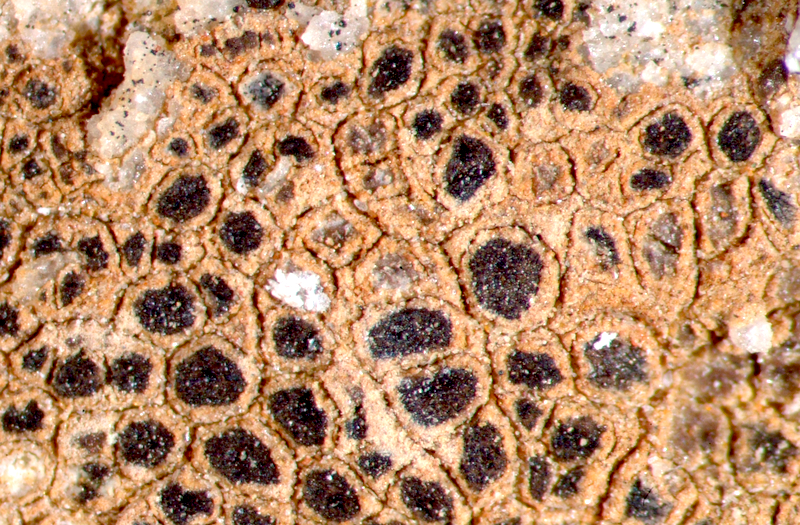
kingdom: Fungi
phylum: Ascomycota
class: Lecanoromycetes
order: Acarosporales
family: Acarosporaceae
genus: Acarospora
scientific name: Acarospora strigata
